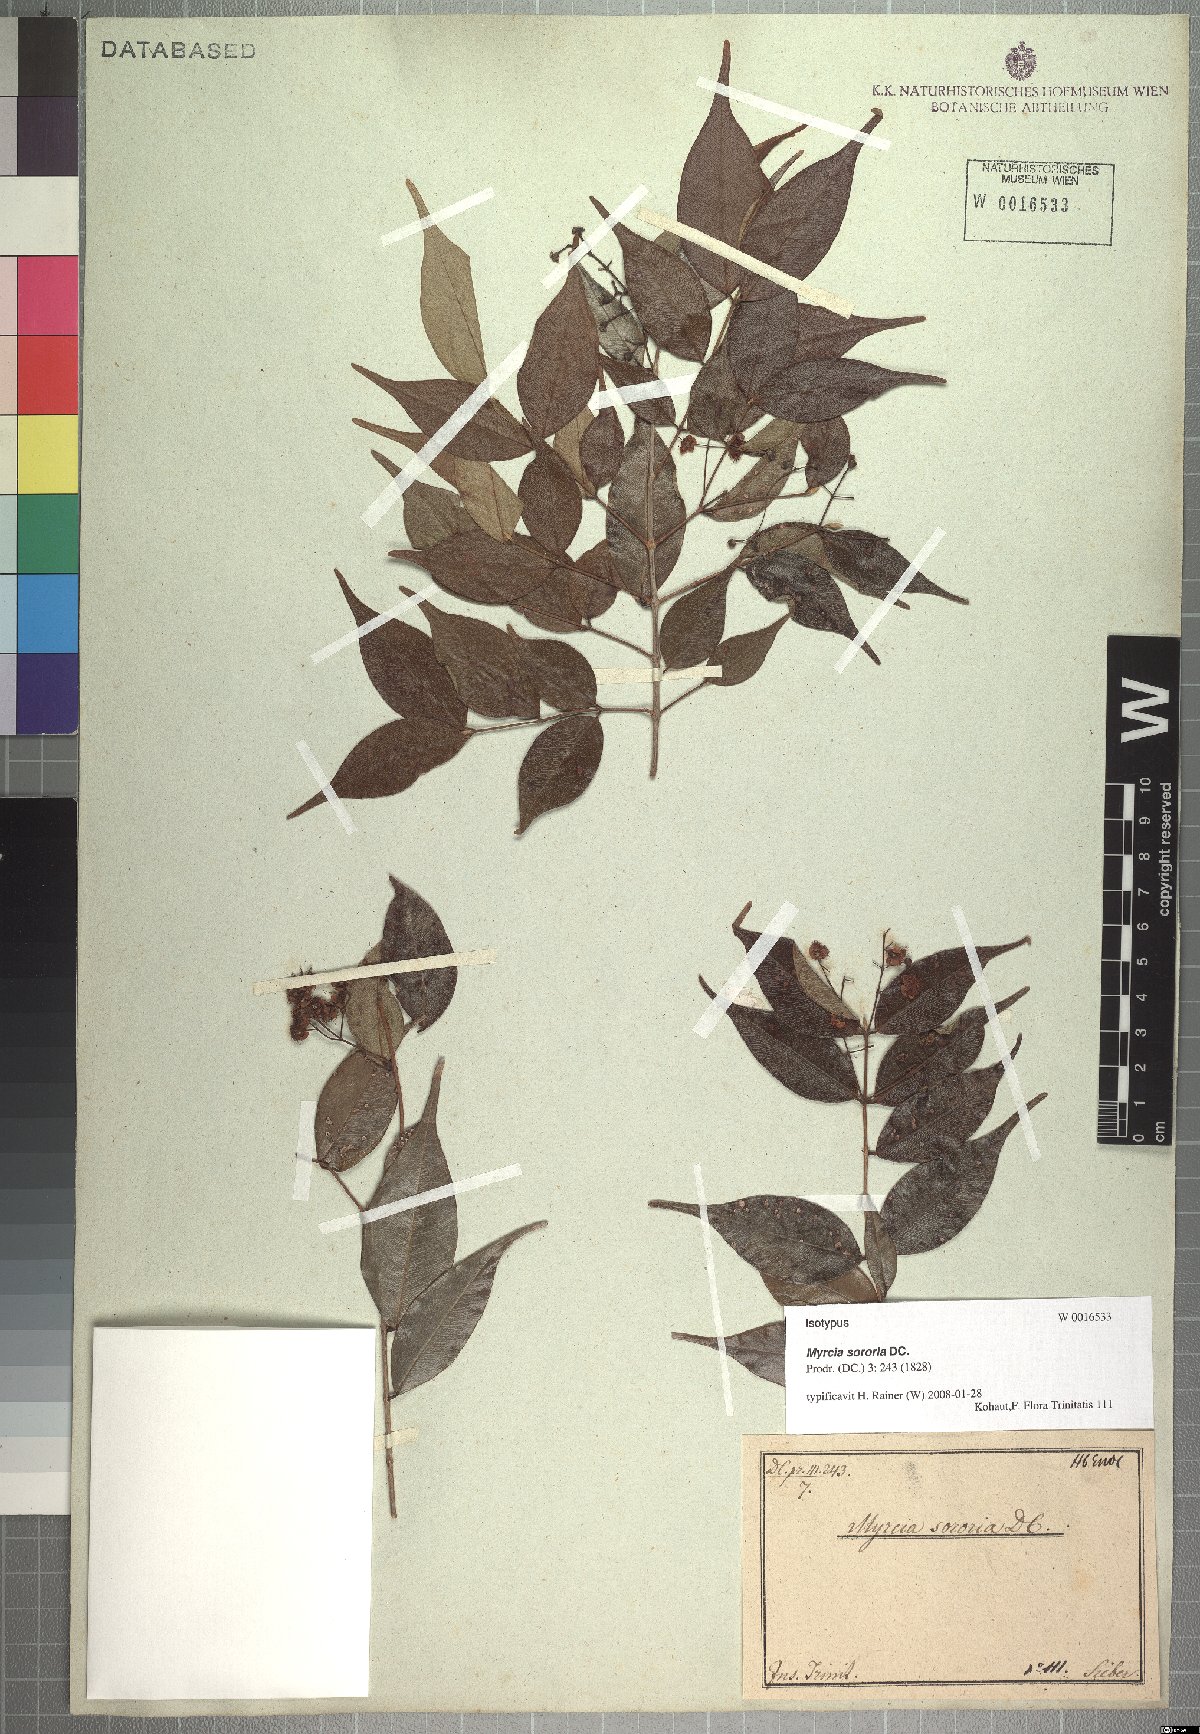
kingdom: Plantae
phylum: Tracheophyta
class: Magnoliopsida
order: Myrtales
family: Myrtaceae
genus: Myrcia
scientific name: Myrcia splendens
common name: Surinam cherry
